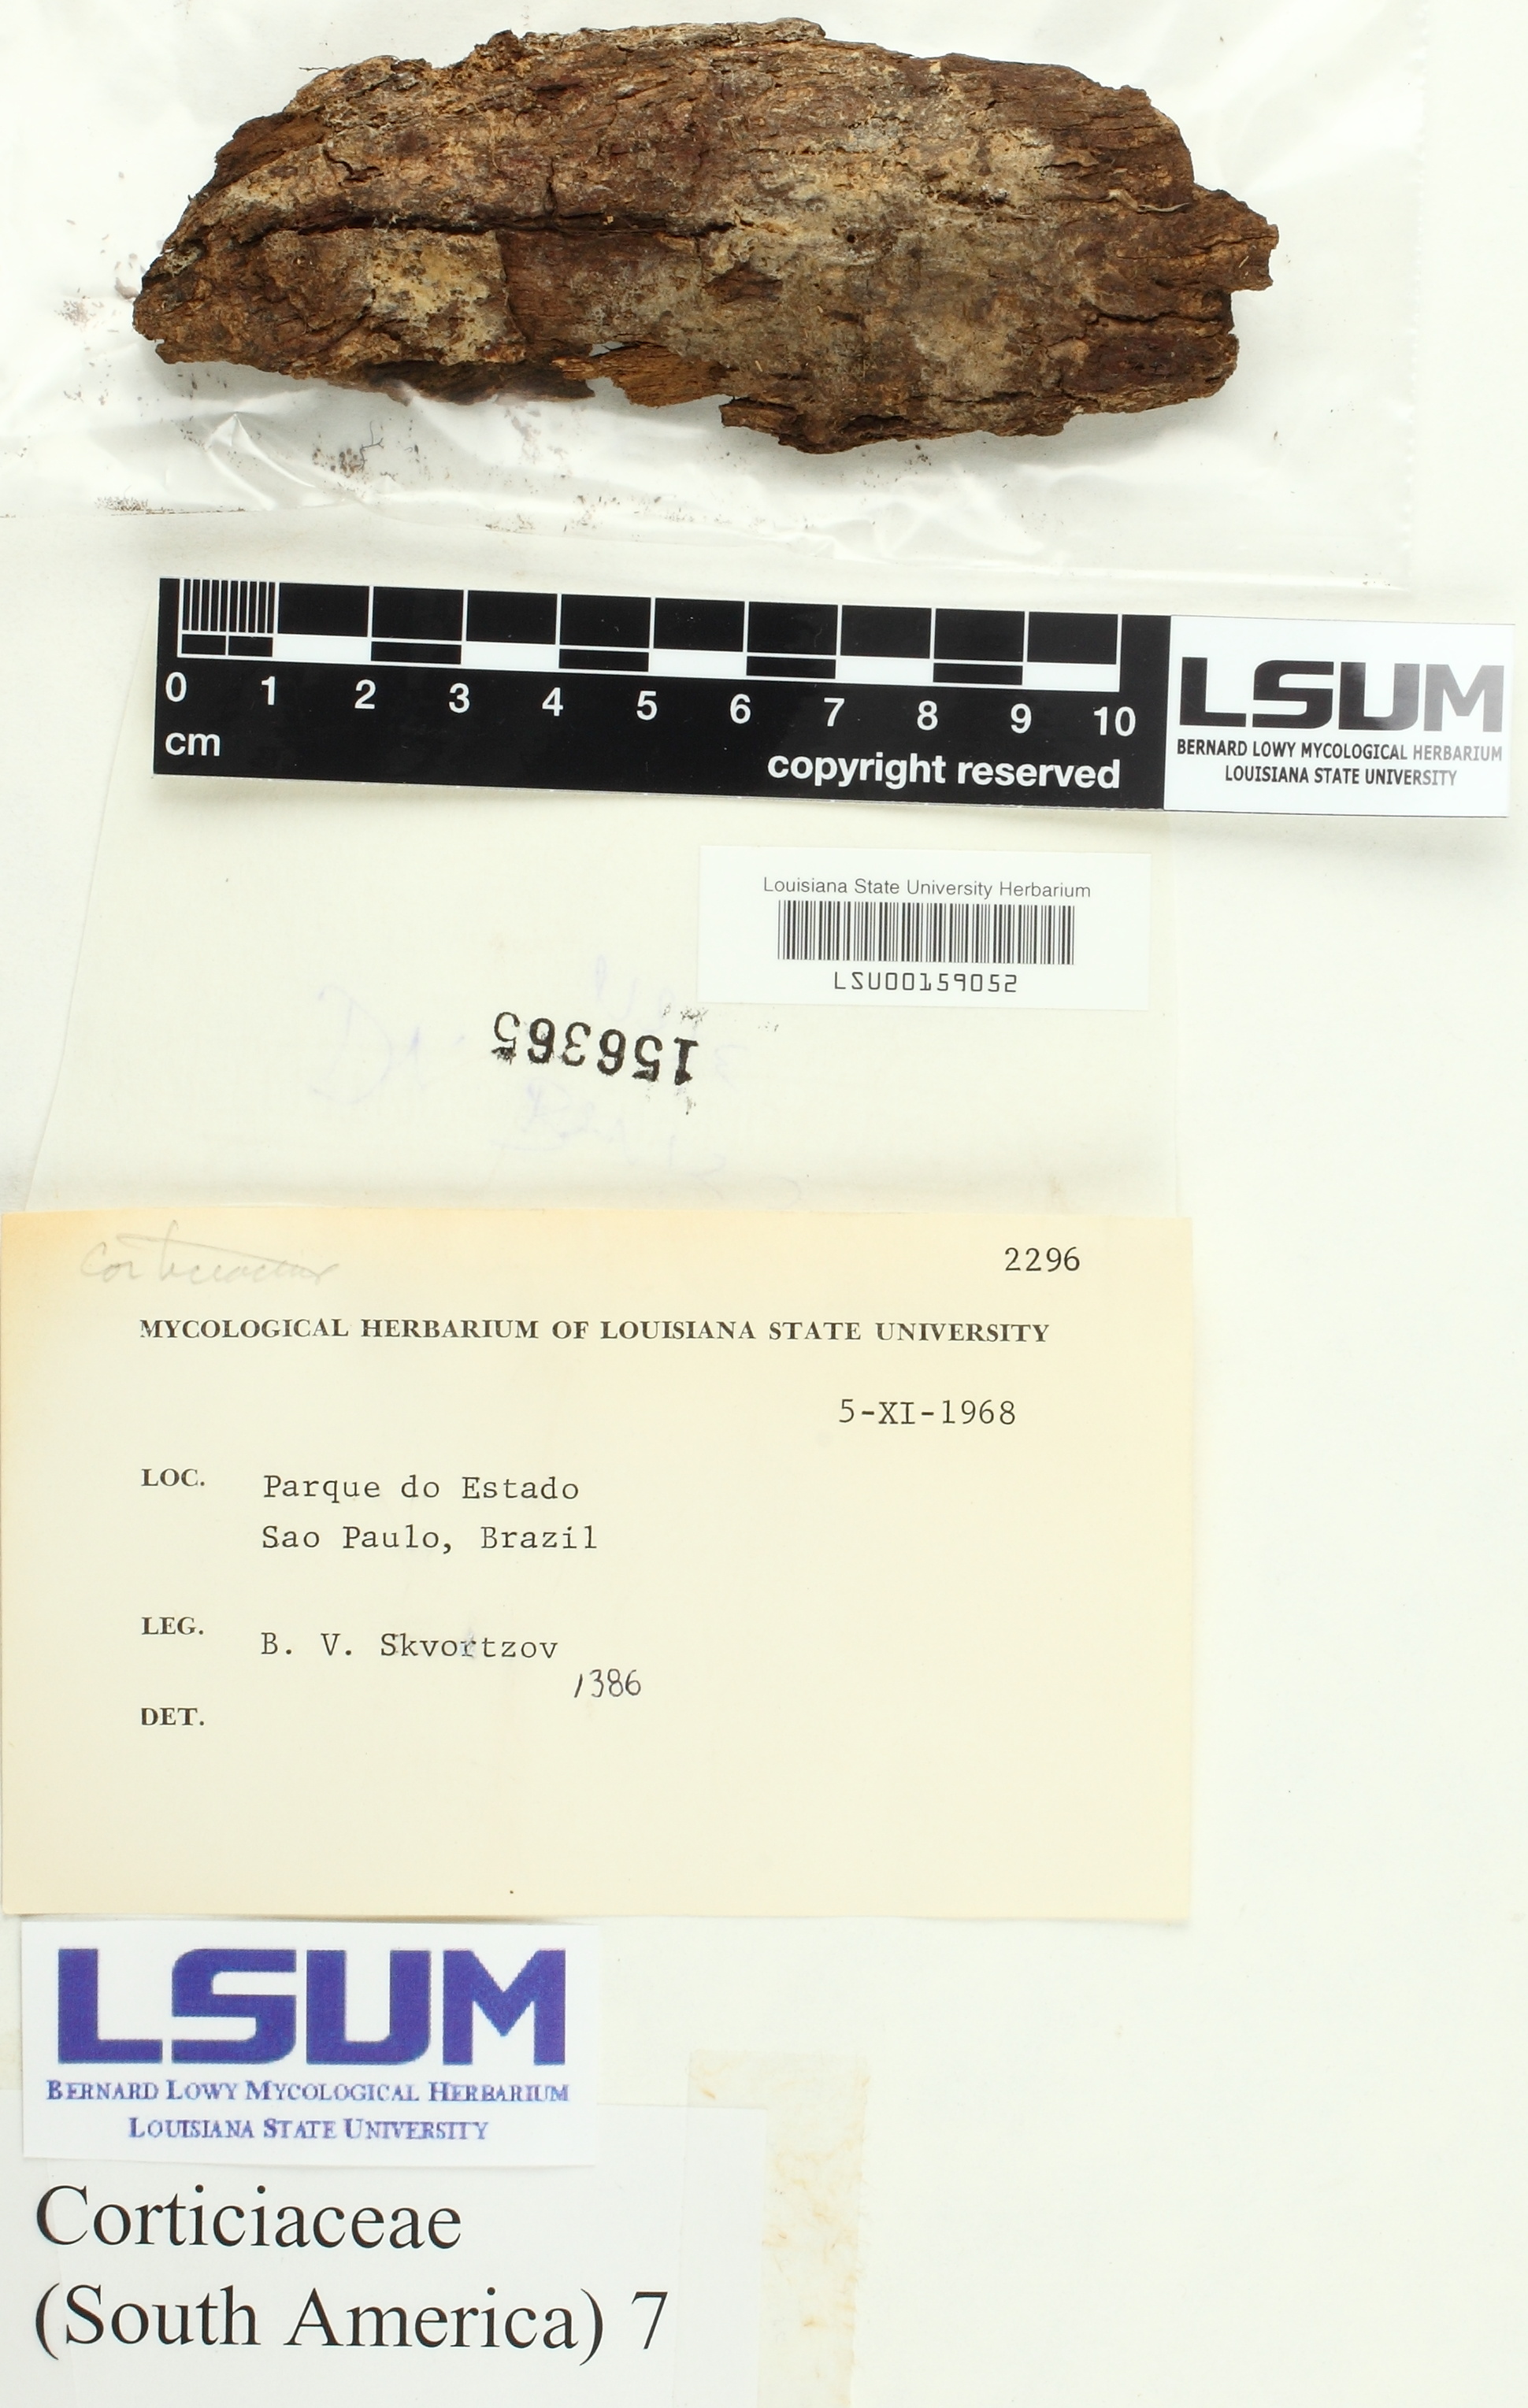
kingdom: Fungi
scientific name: Fungi
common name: Fungi
